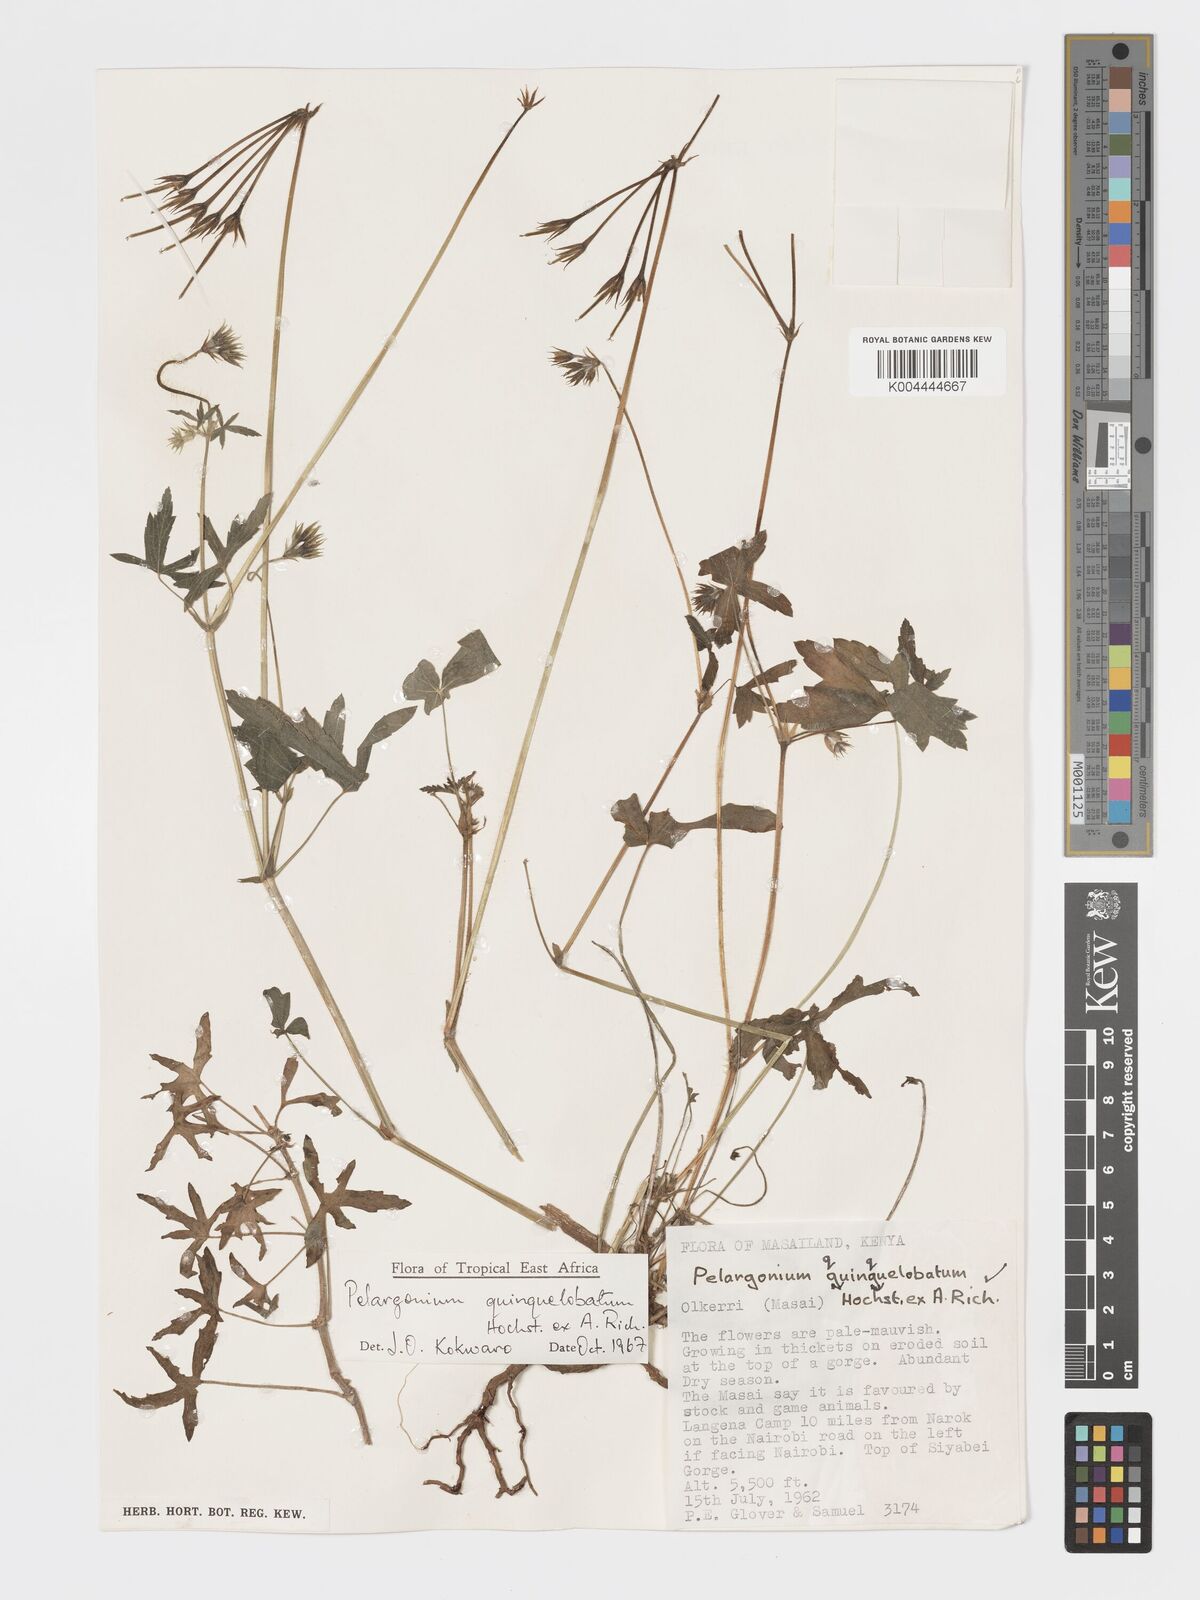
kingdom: Plantae
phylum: Tracheophyta
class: Magnoliopsida
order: Geraniales
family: Geraniaceae
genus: Pelargonium
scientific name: Pelargonium quinquelobatum
